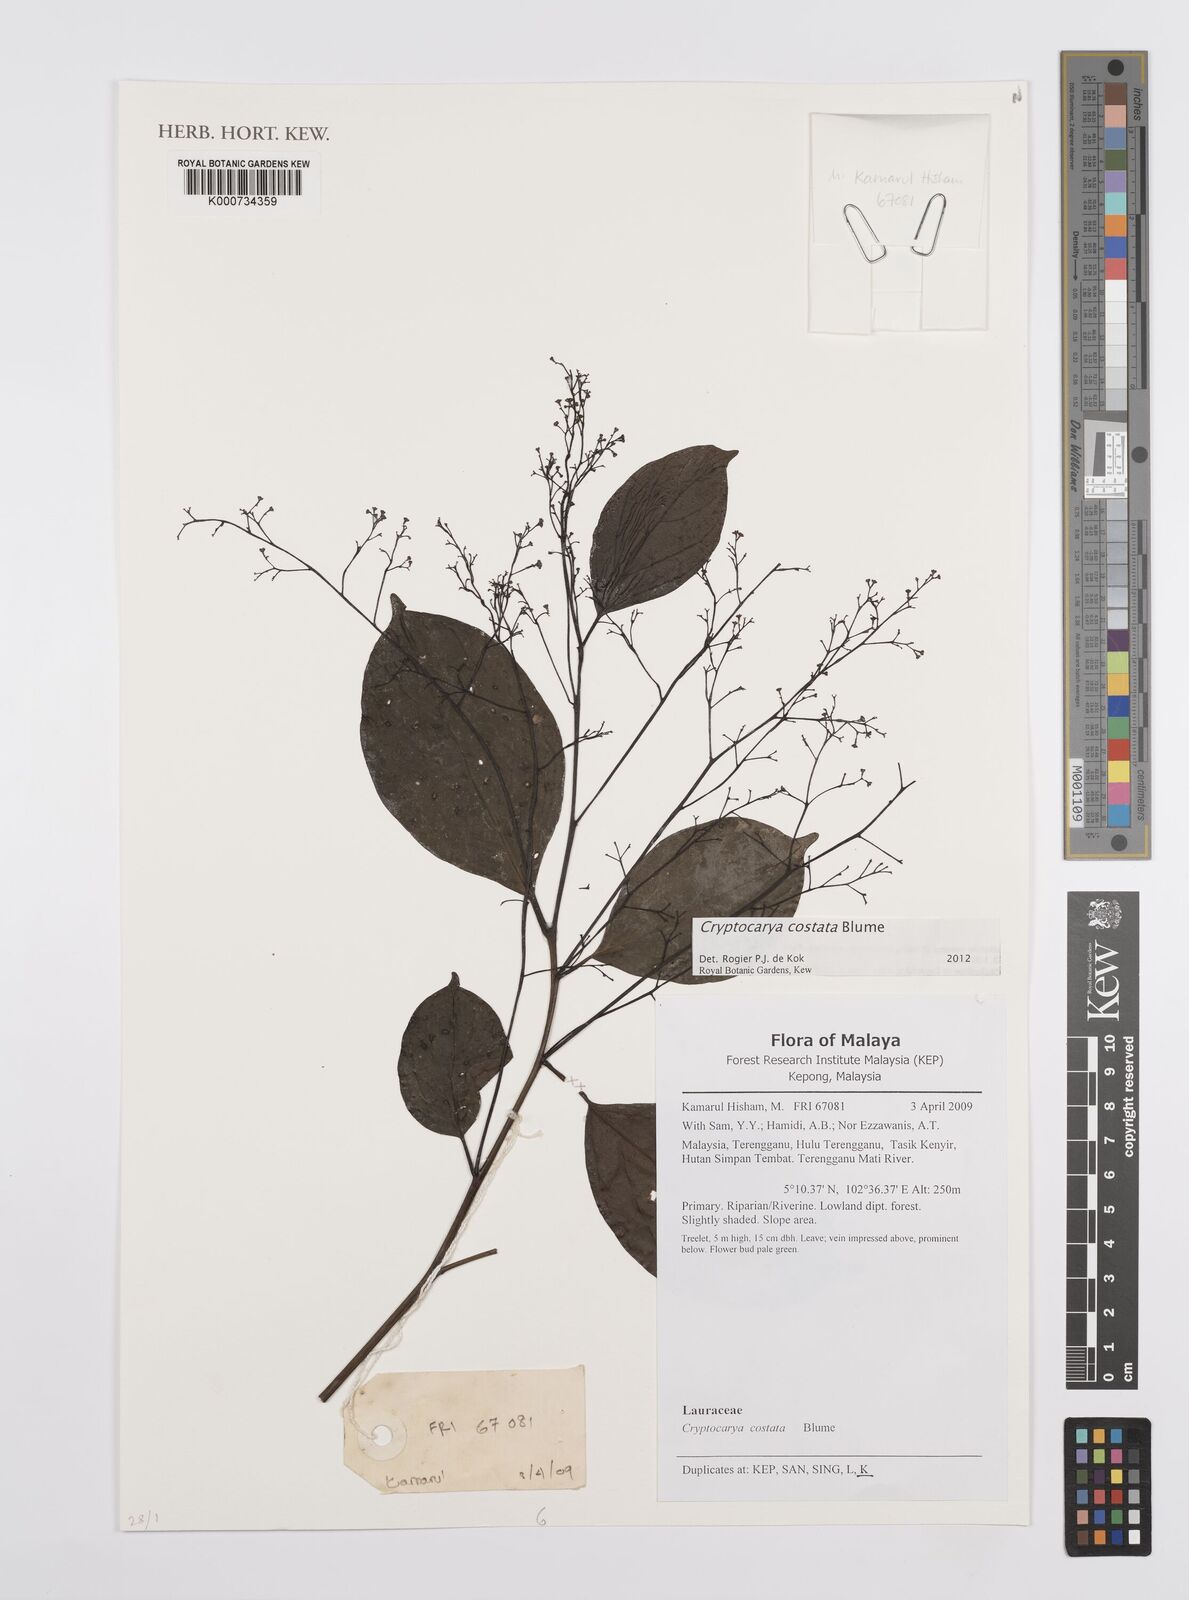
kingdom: Plantae
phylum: Tracheophyta
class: Magnoliopsida
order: Laurales
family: Lauraceae
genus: Cryptocarya
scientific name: Cryptocarya costata
